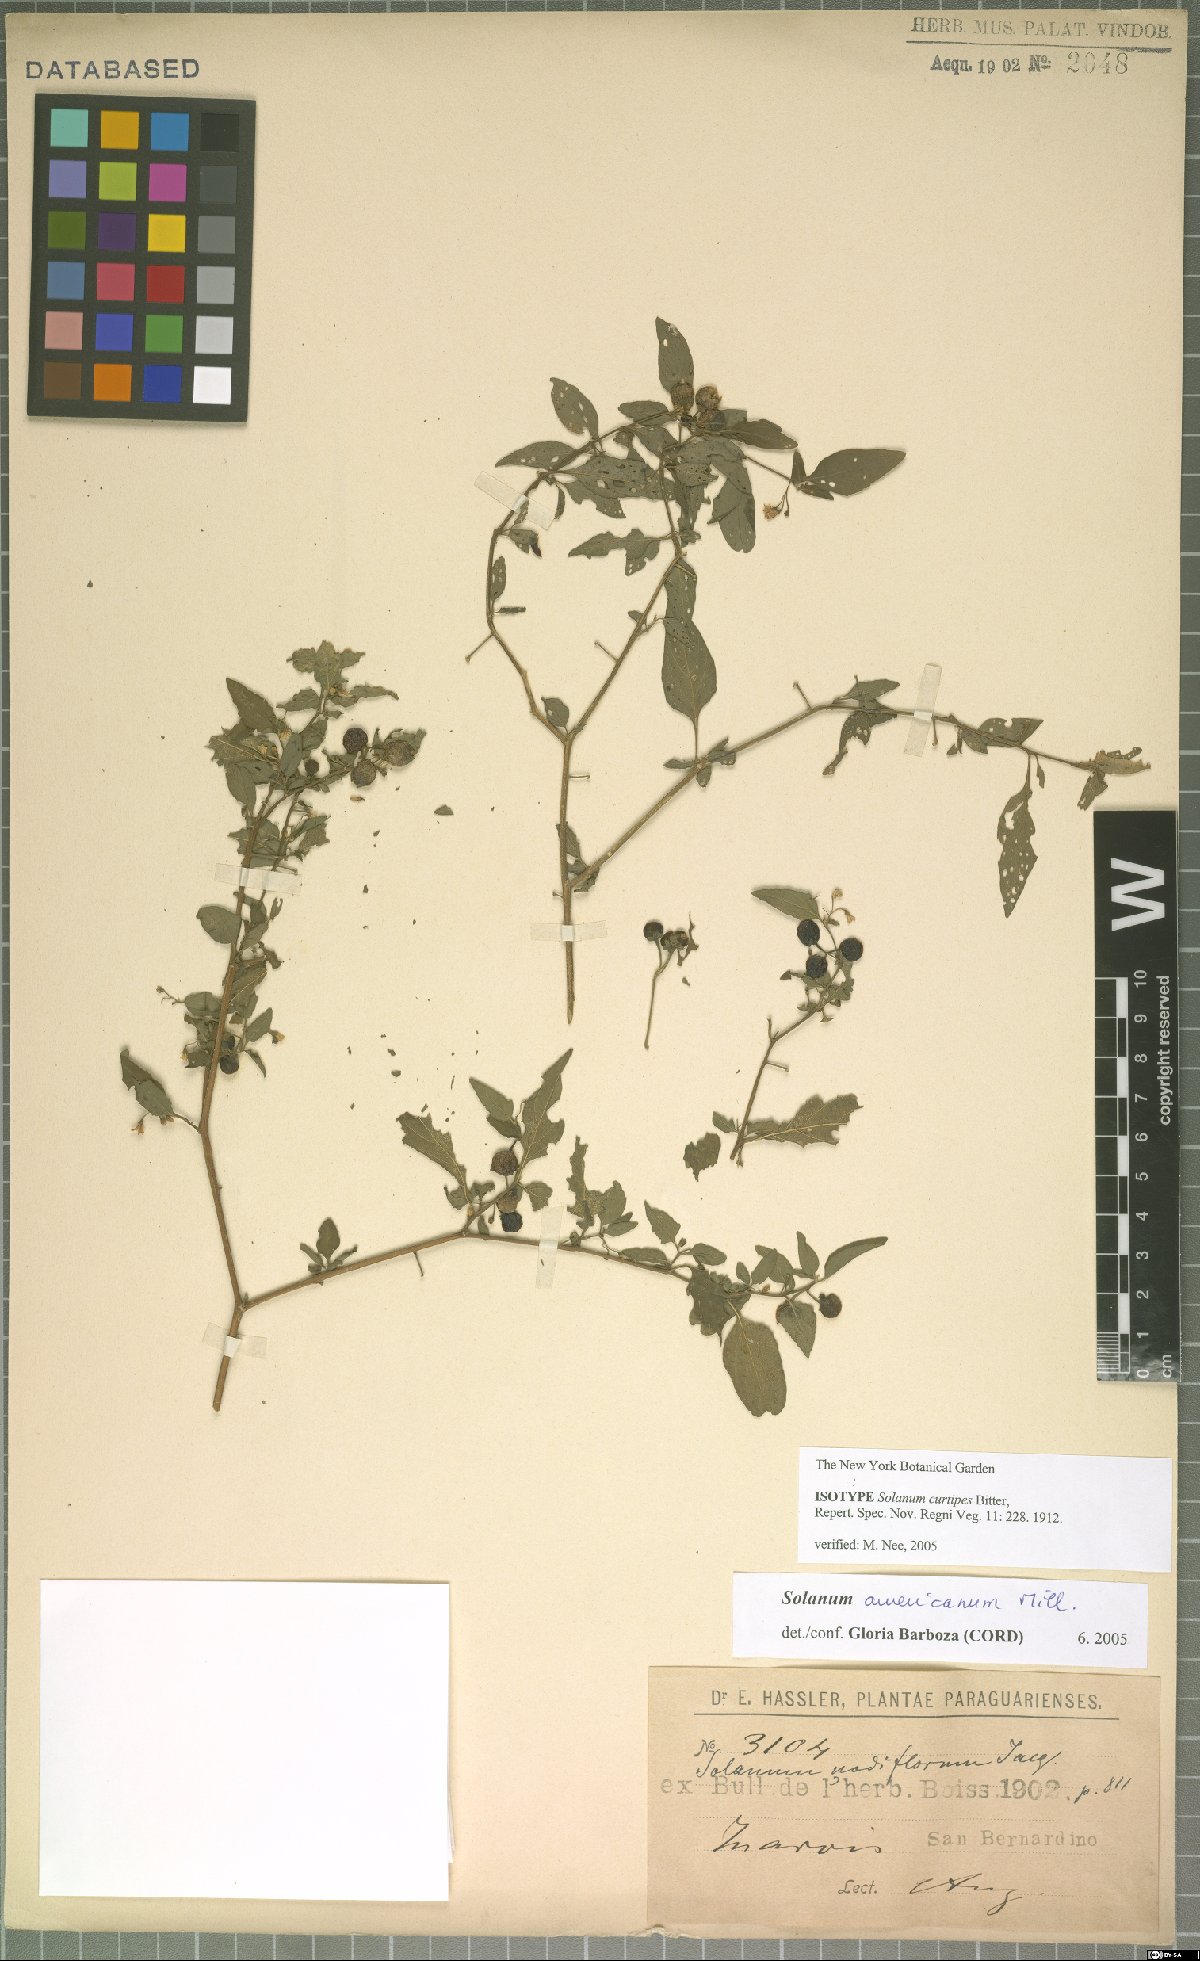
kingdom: Plantae
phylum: Tracheophyta
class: Magnoliopsida
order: Solanales
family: Solanaceae
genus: Solanum
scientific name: Solanum americanum
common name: American black nightshade
